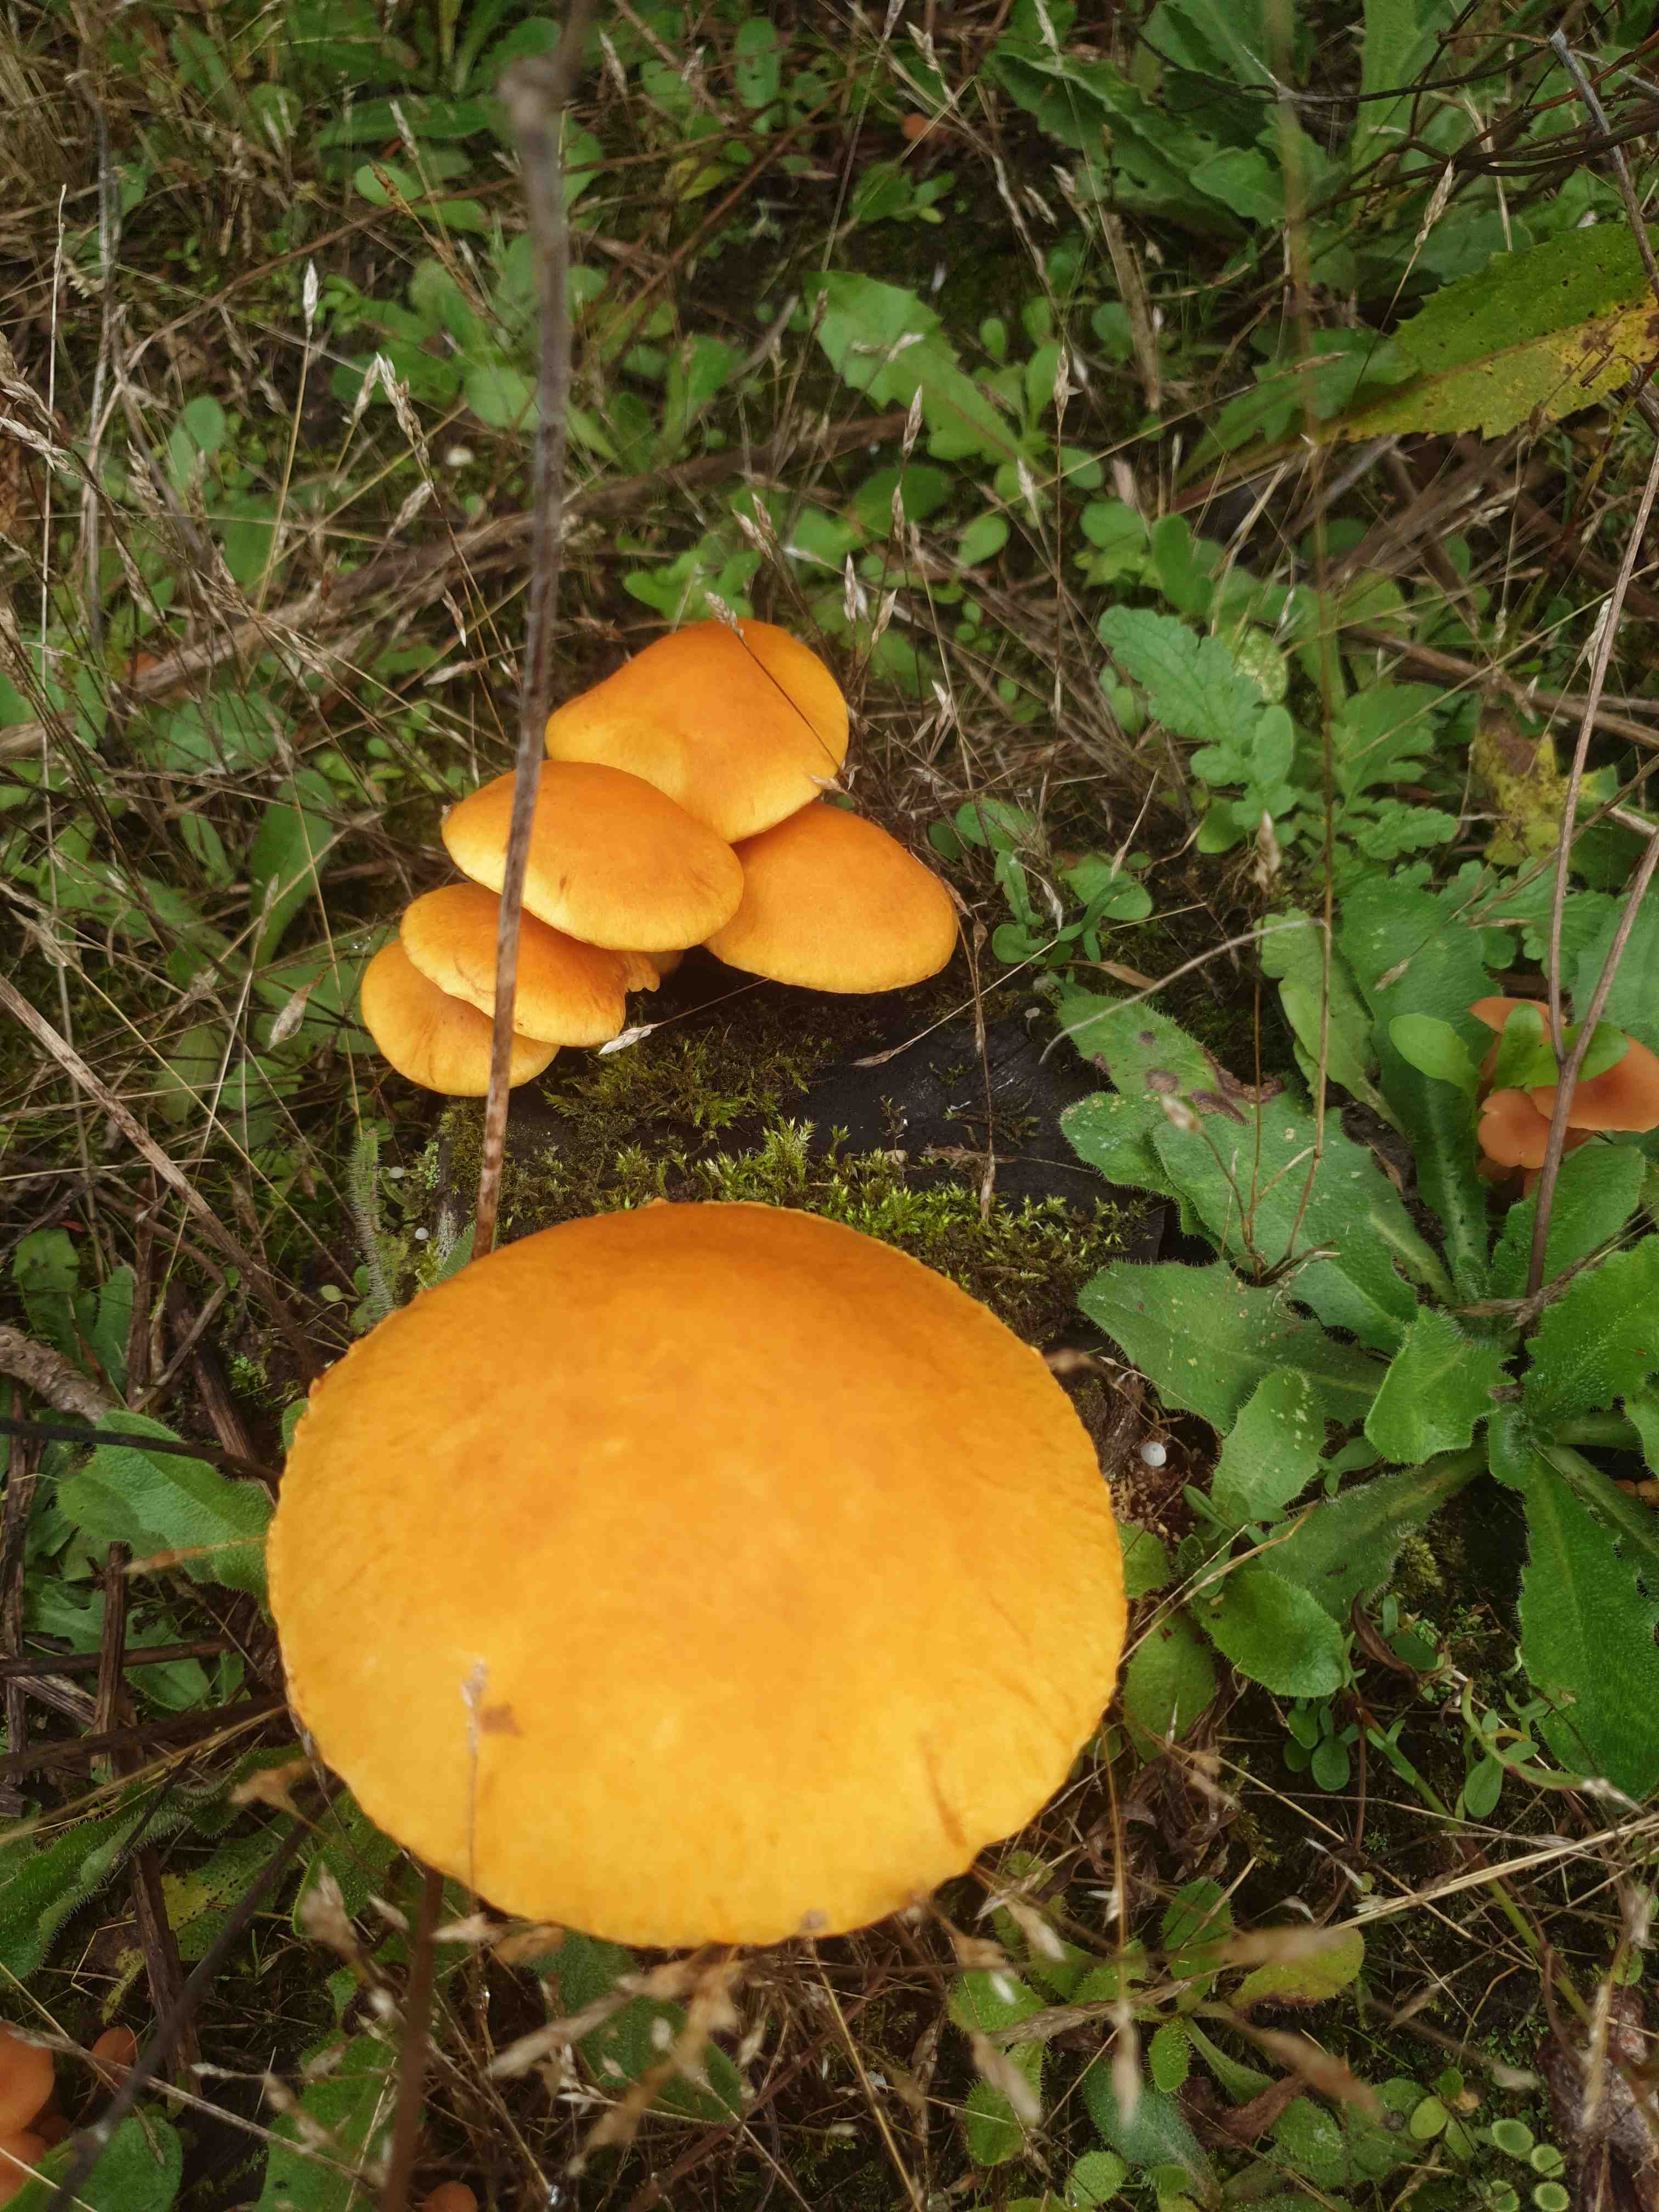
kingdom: Fungi
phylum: Basidiomycota
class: Agaricomycetes
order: Agaricales
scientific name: Agaricales
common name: champignonordenen
